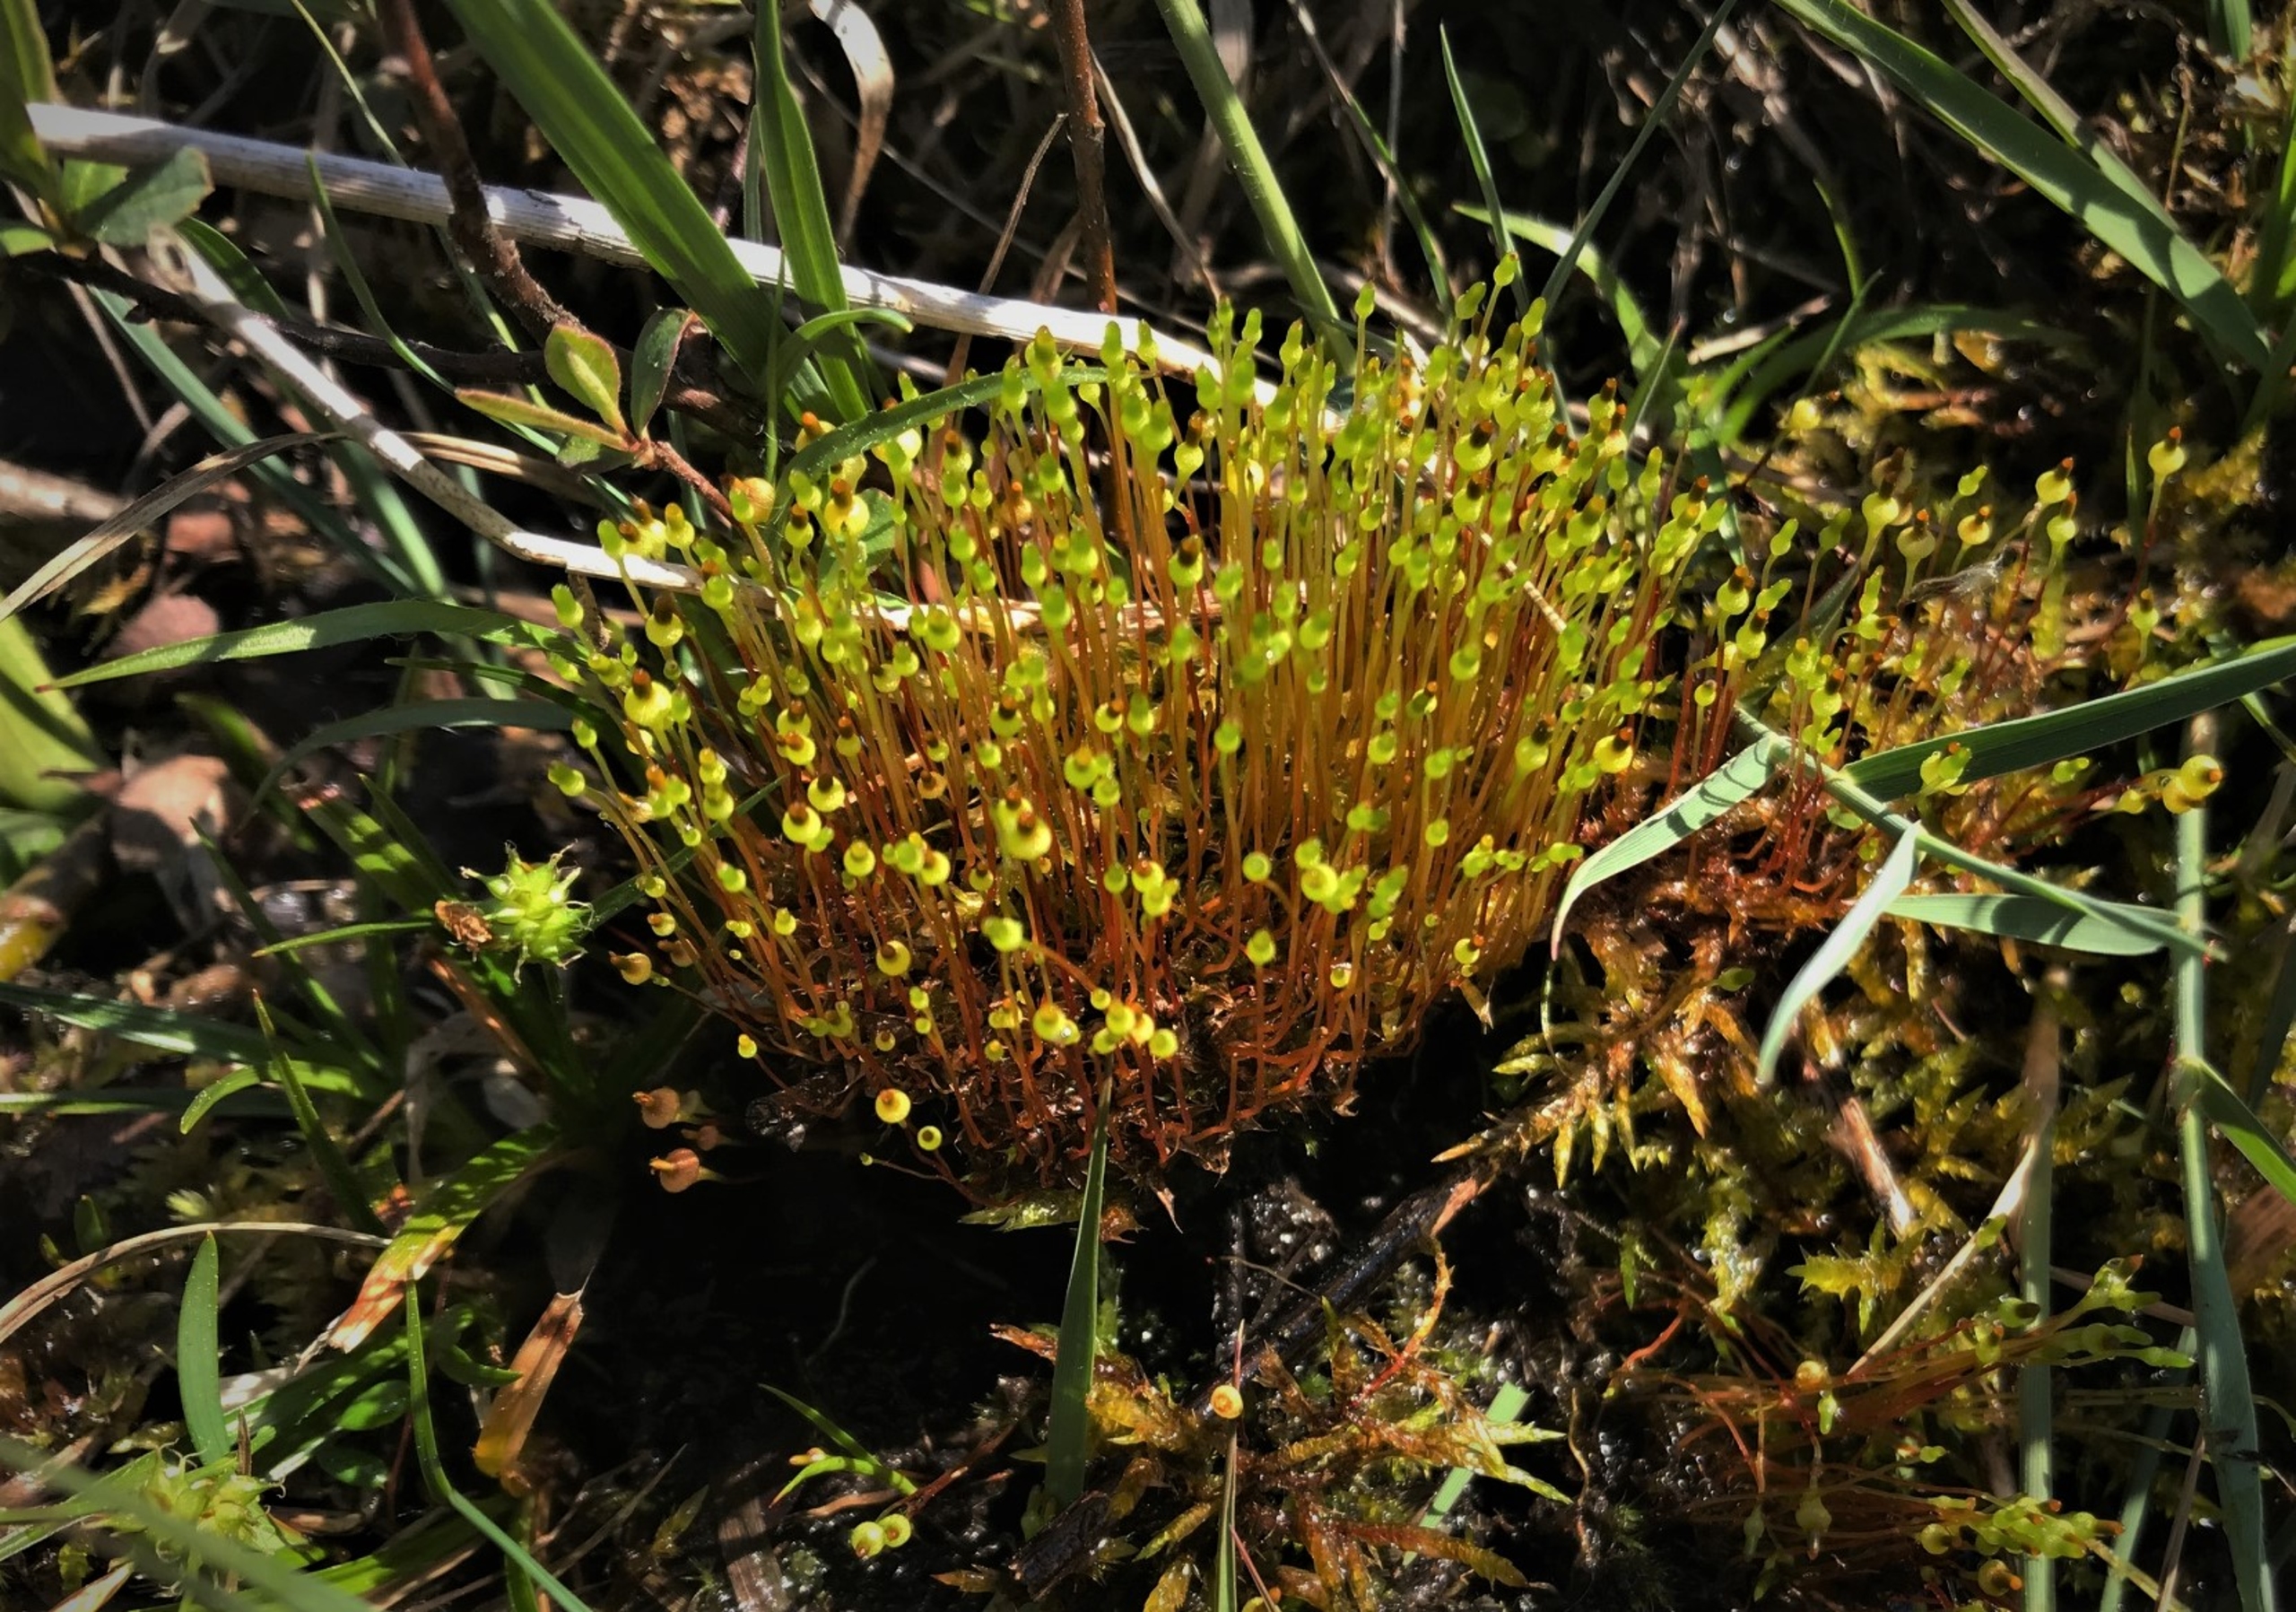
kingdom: Plantae
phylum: Bryophyta
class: Bryopsida
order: Splachnales
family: Splachnaceae
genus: Splachnum
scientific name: Splachnum ampullaceum
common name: Pære-møgmos
